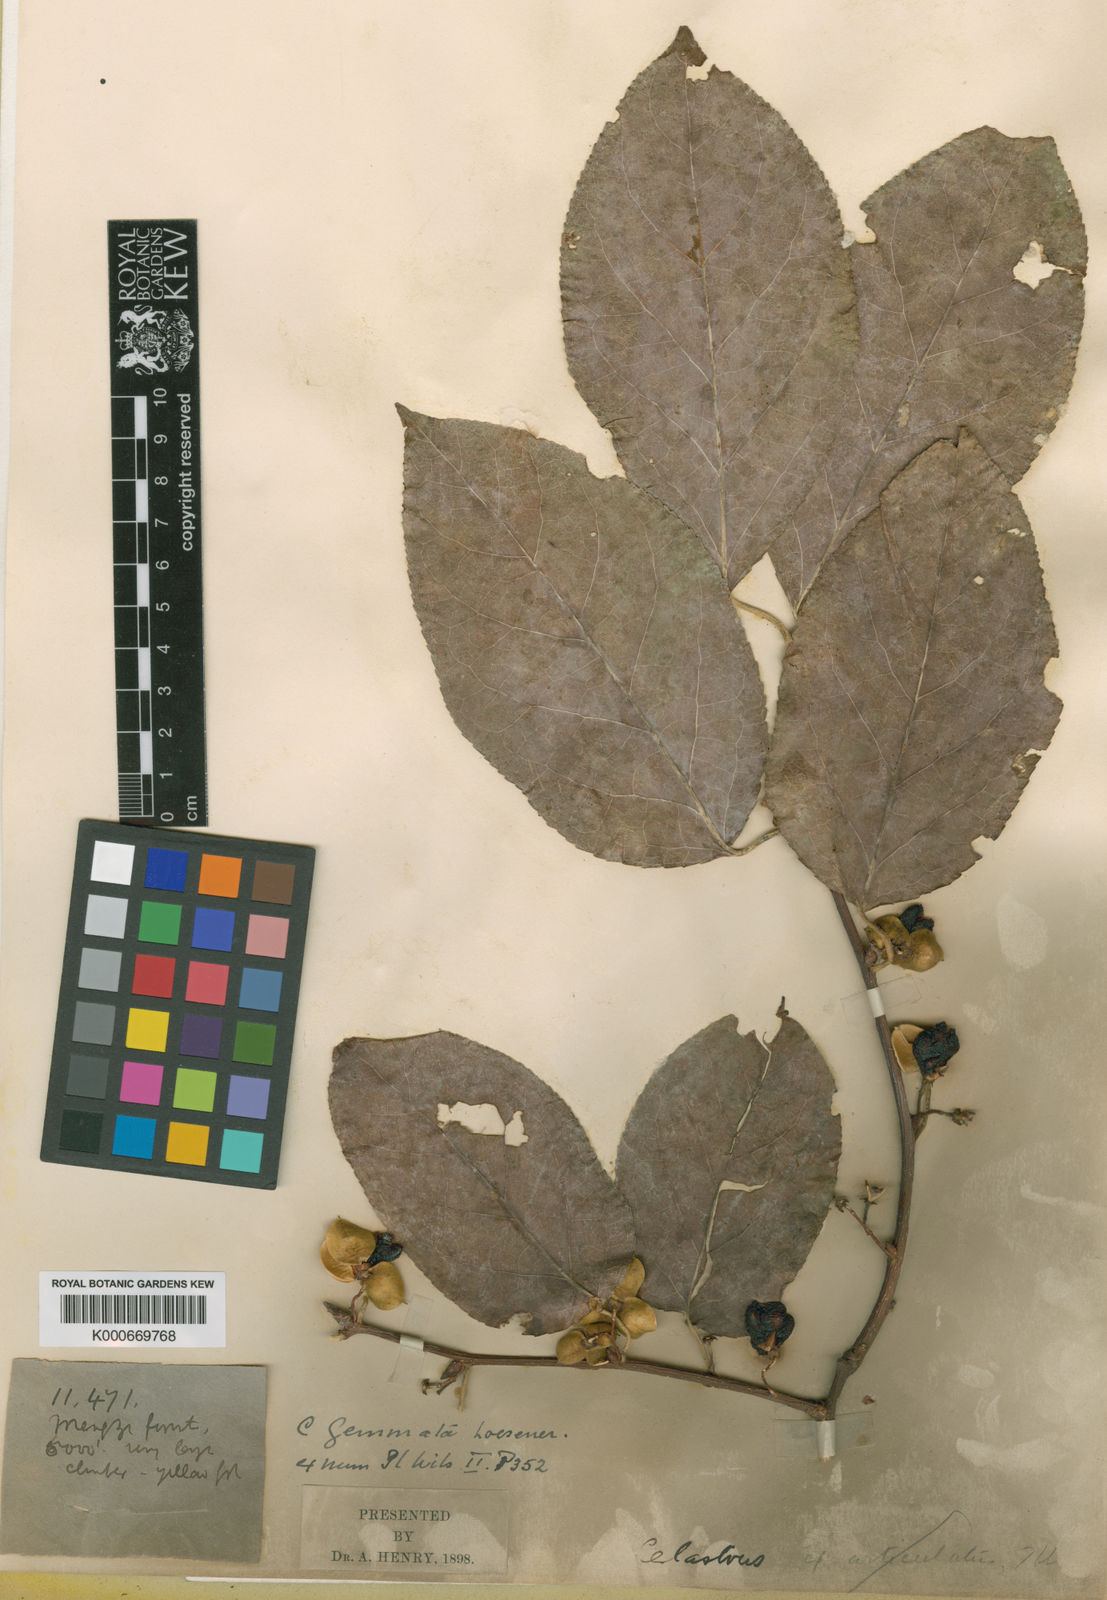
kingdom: Plantae
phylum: Tracheophyta
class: Magnoliopsida
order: Celastrales
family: Celastraceae
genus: Celastrus
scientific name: Celastrus gemmatus
